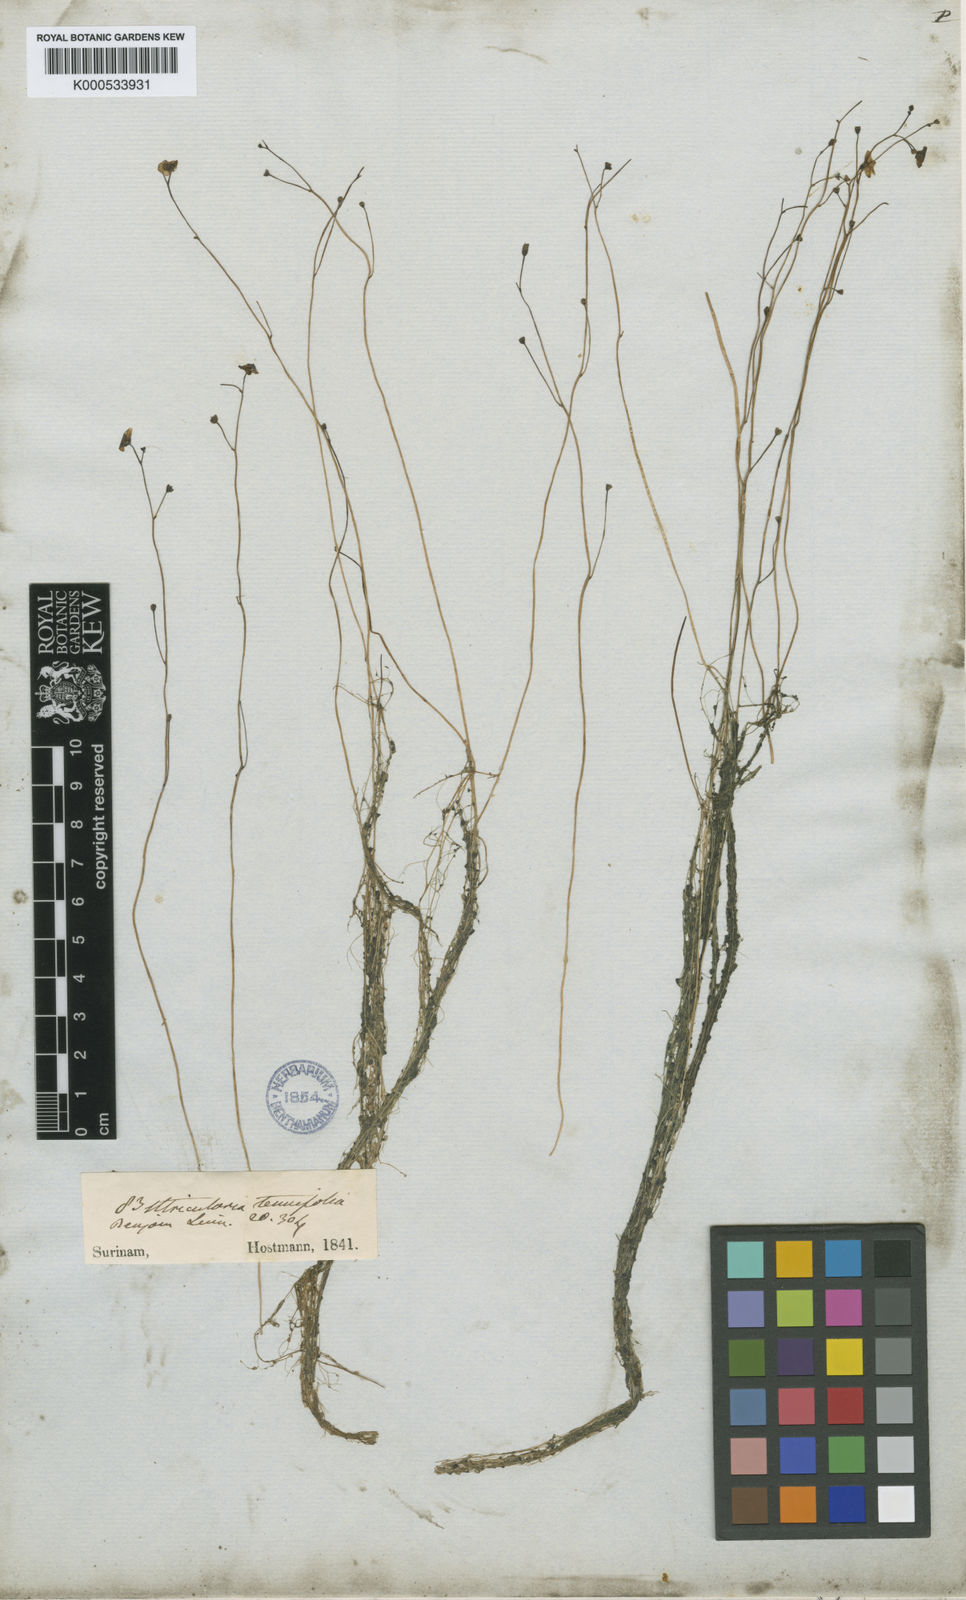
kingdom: Plantae
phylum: Tracheophyta
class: Magnoliopsida
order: Lamiales
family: Lentibulariaceae
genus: Utricularia
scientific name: Utricularia gibba
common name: Humped bladderwort
